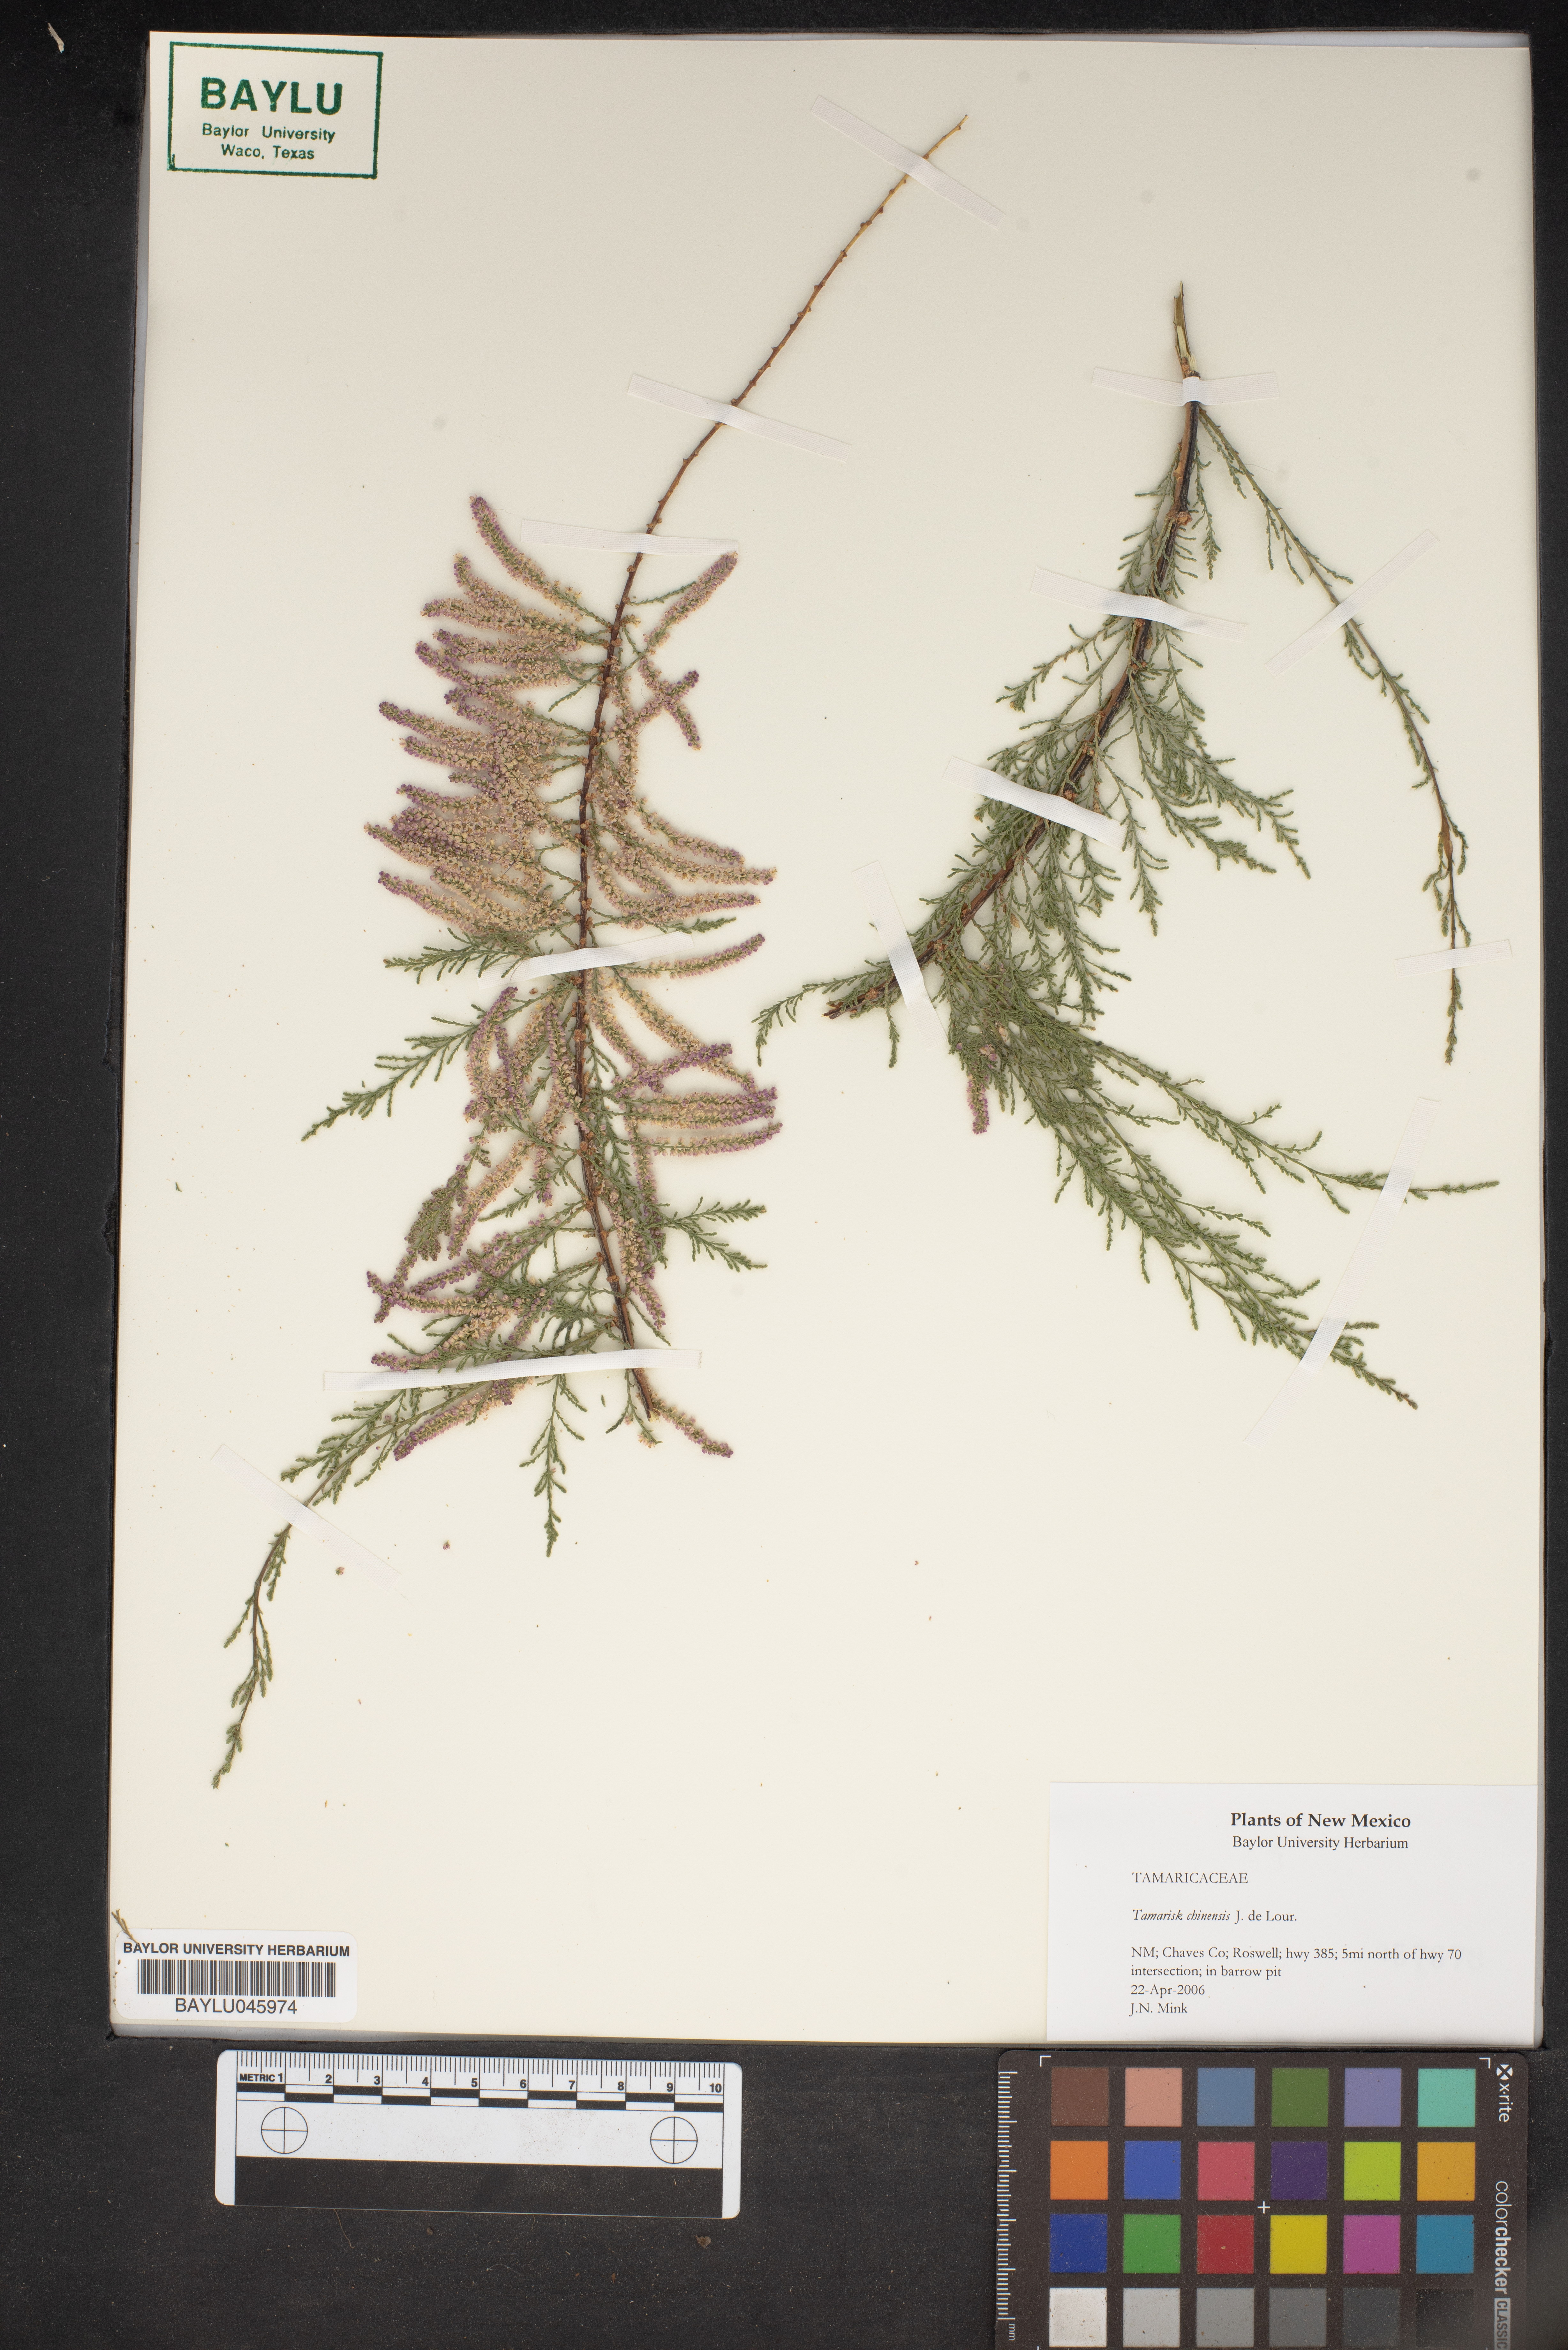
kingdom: Plantae
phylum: Tracheophyta
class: Magnoliopsida
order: Caryophyllales
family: Tamaricaceae
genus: Tamarix
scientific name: Tamarix chinensis
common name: Chinese tamarisk
